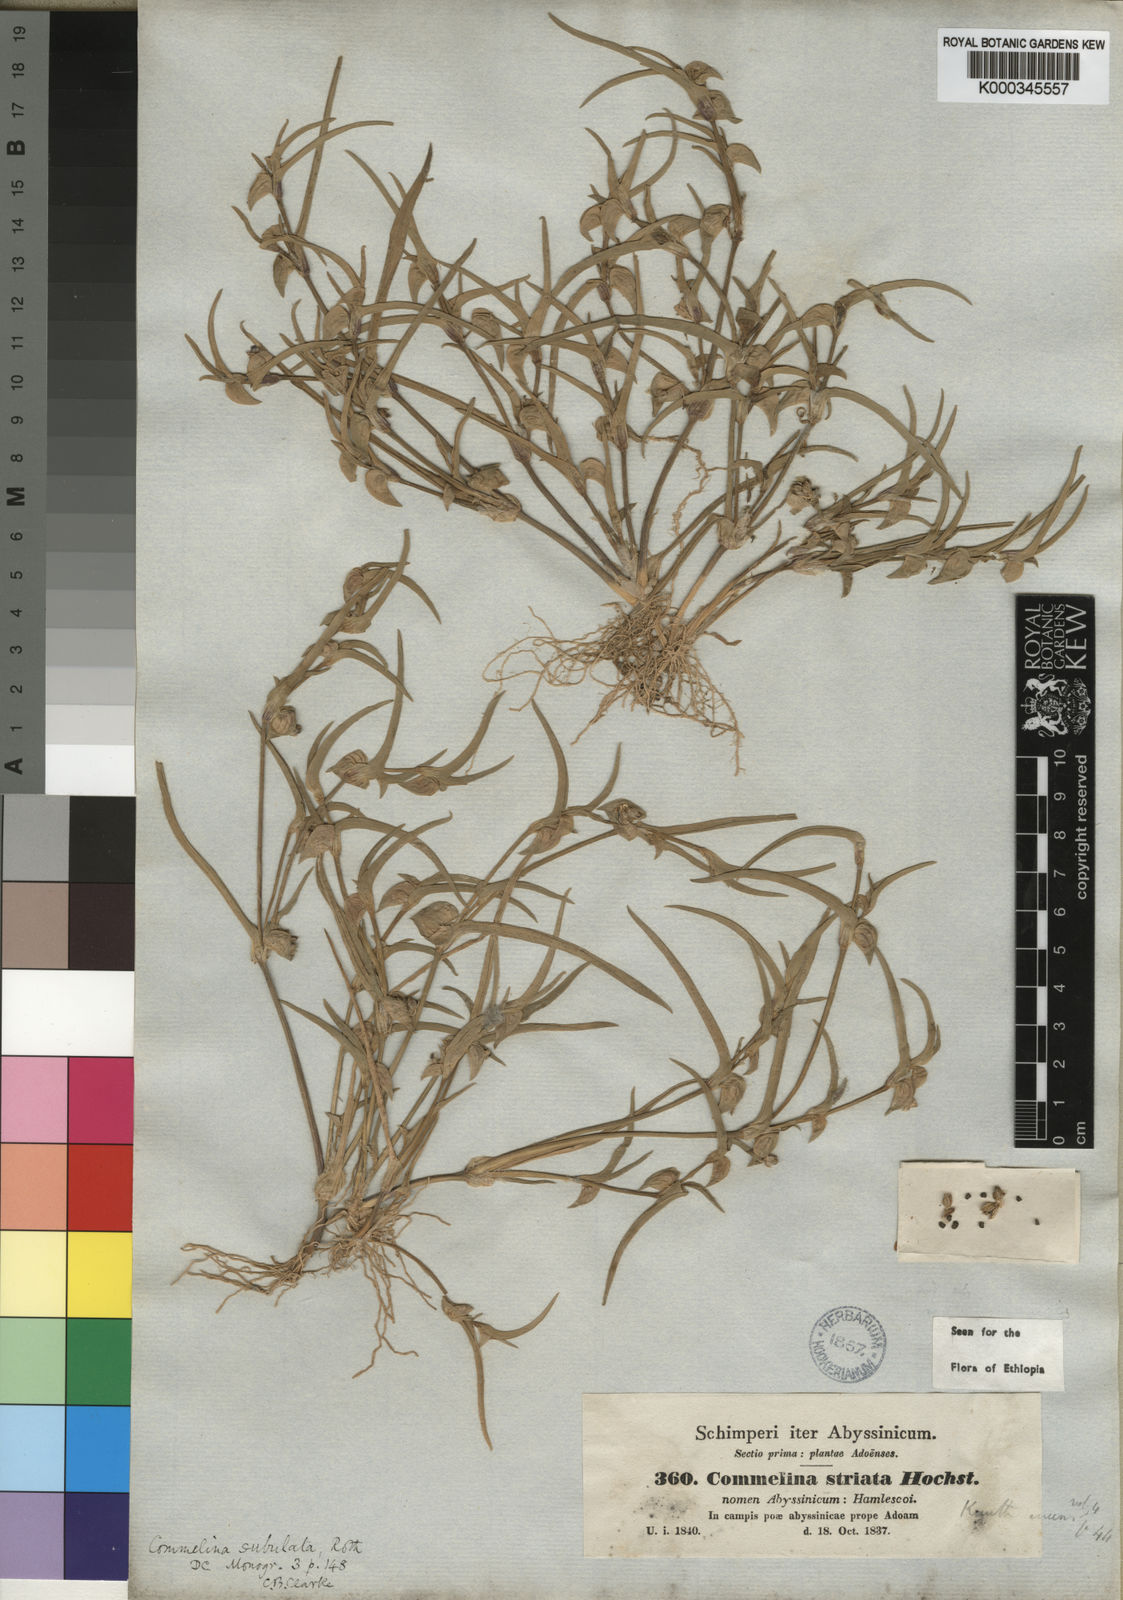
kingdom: Plantae
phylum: Tracheophyta
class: Liliopsida
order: Commelinales
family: Commelinaceae
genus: Commelina
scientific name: Commelina subulata
